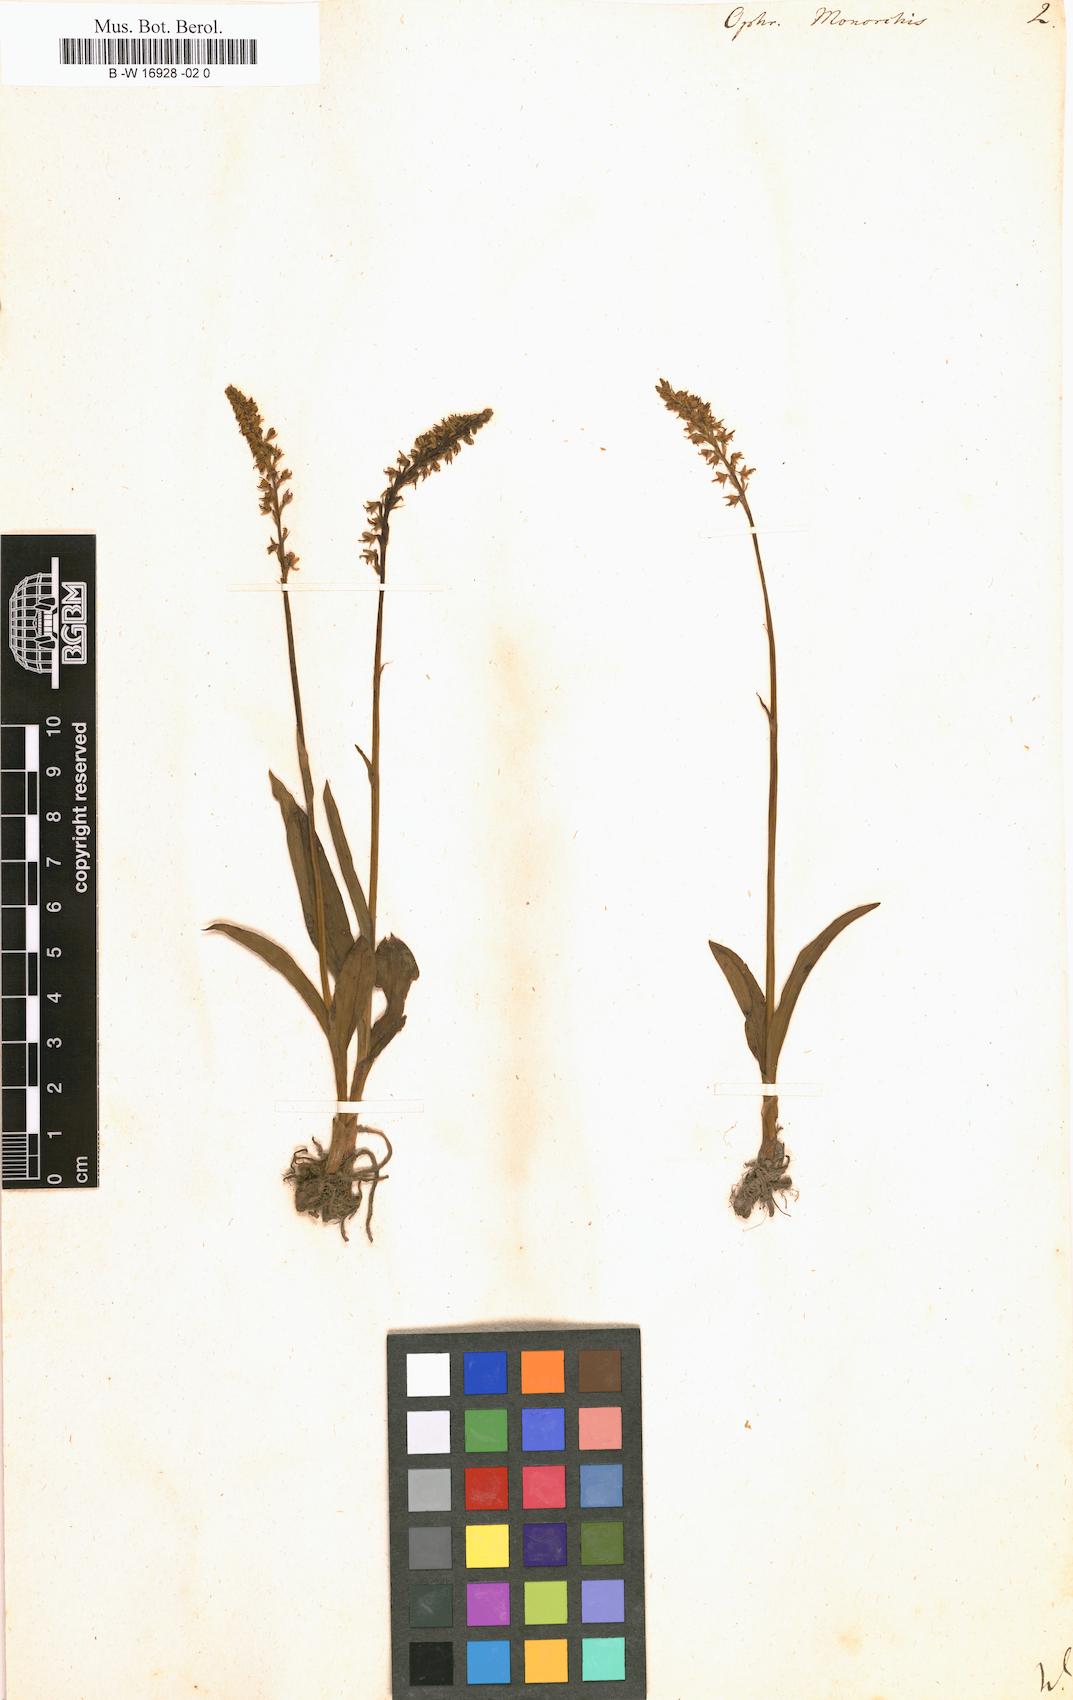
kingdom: Plantae
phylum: Tracheophyta
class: Liliopsida
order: Asparagales
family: Orchidaceae
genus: Herminium
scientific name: Herminium monorchis
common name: Musk orchid
